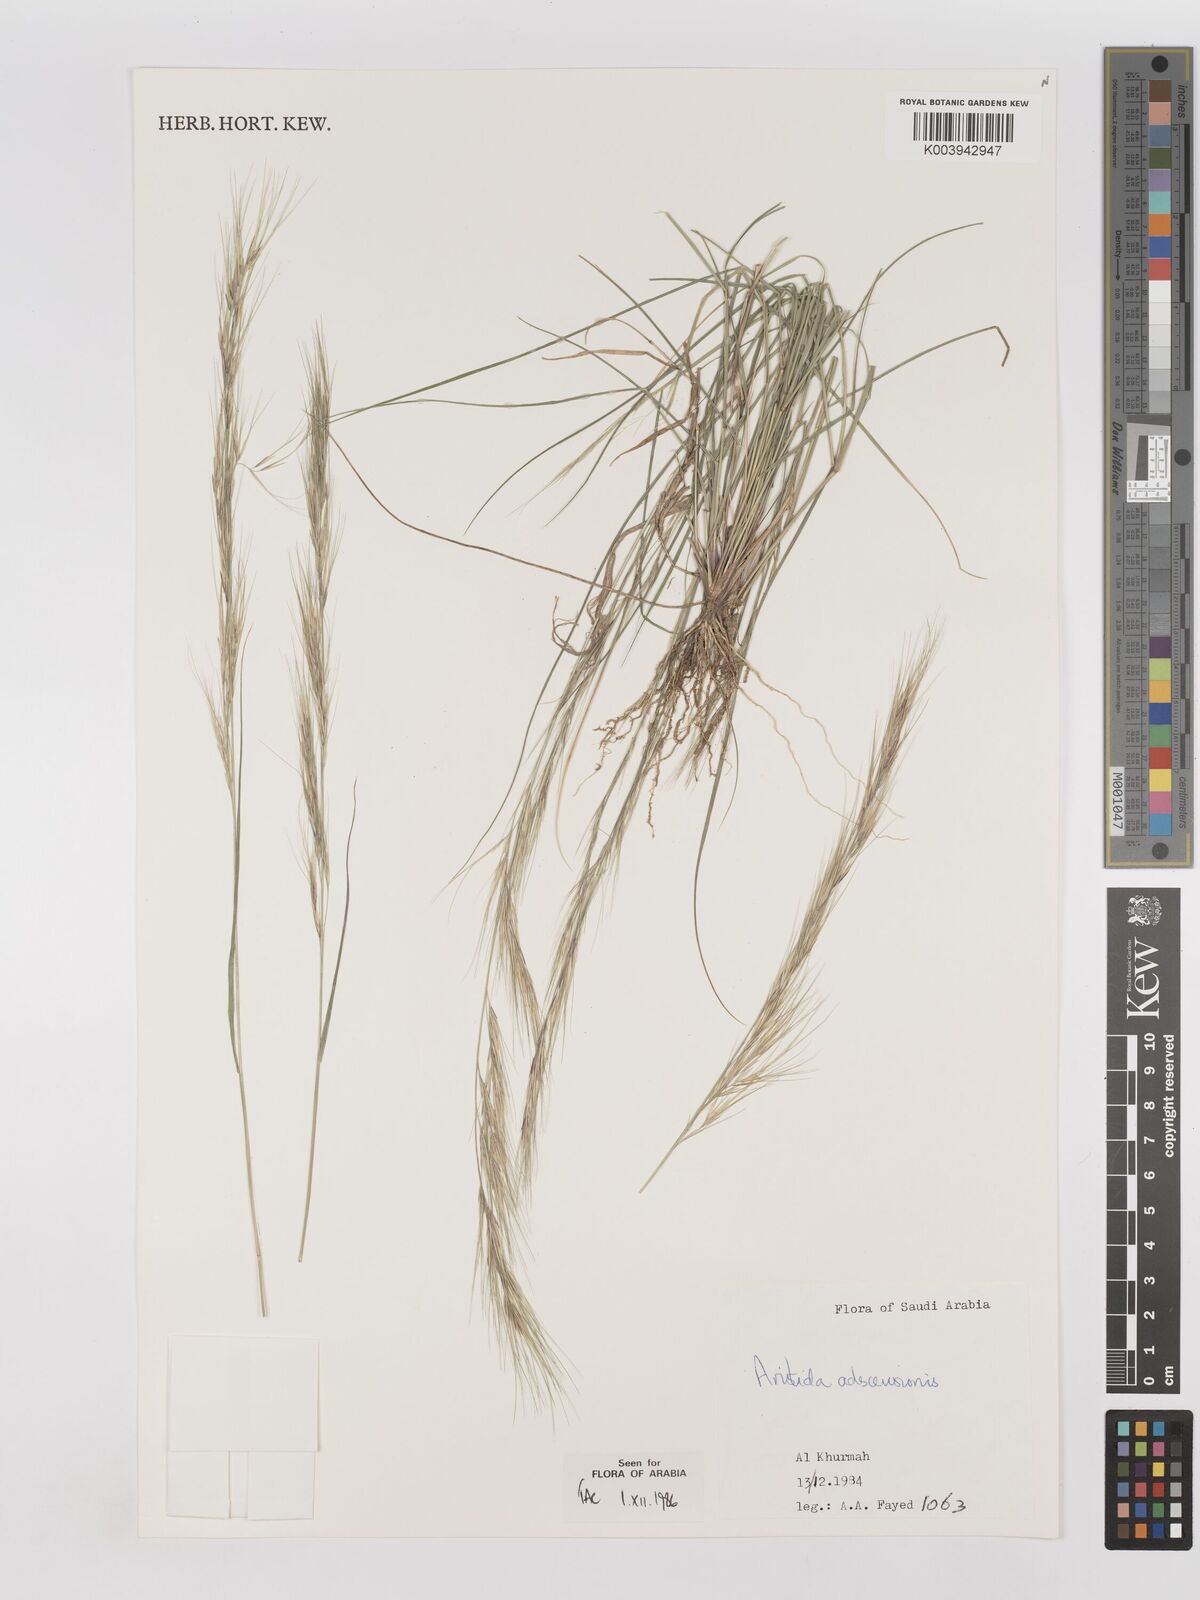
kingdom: Plantae
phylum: Tracheophyta
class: Liliopsida
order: Poales
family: Poaceae
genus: Aristida
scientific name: Aristida adscensionis
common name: Sixweeks threeawn
